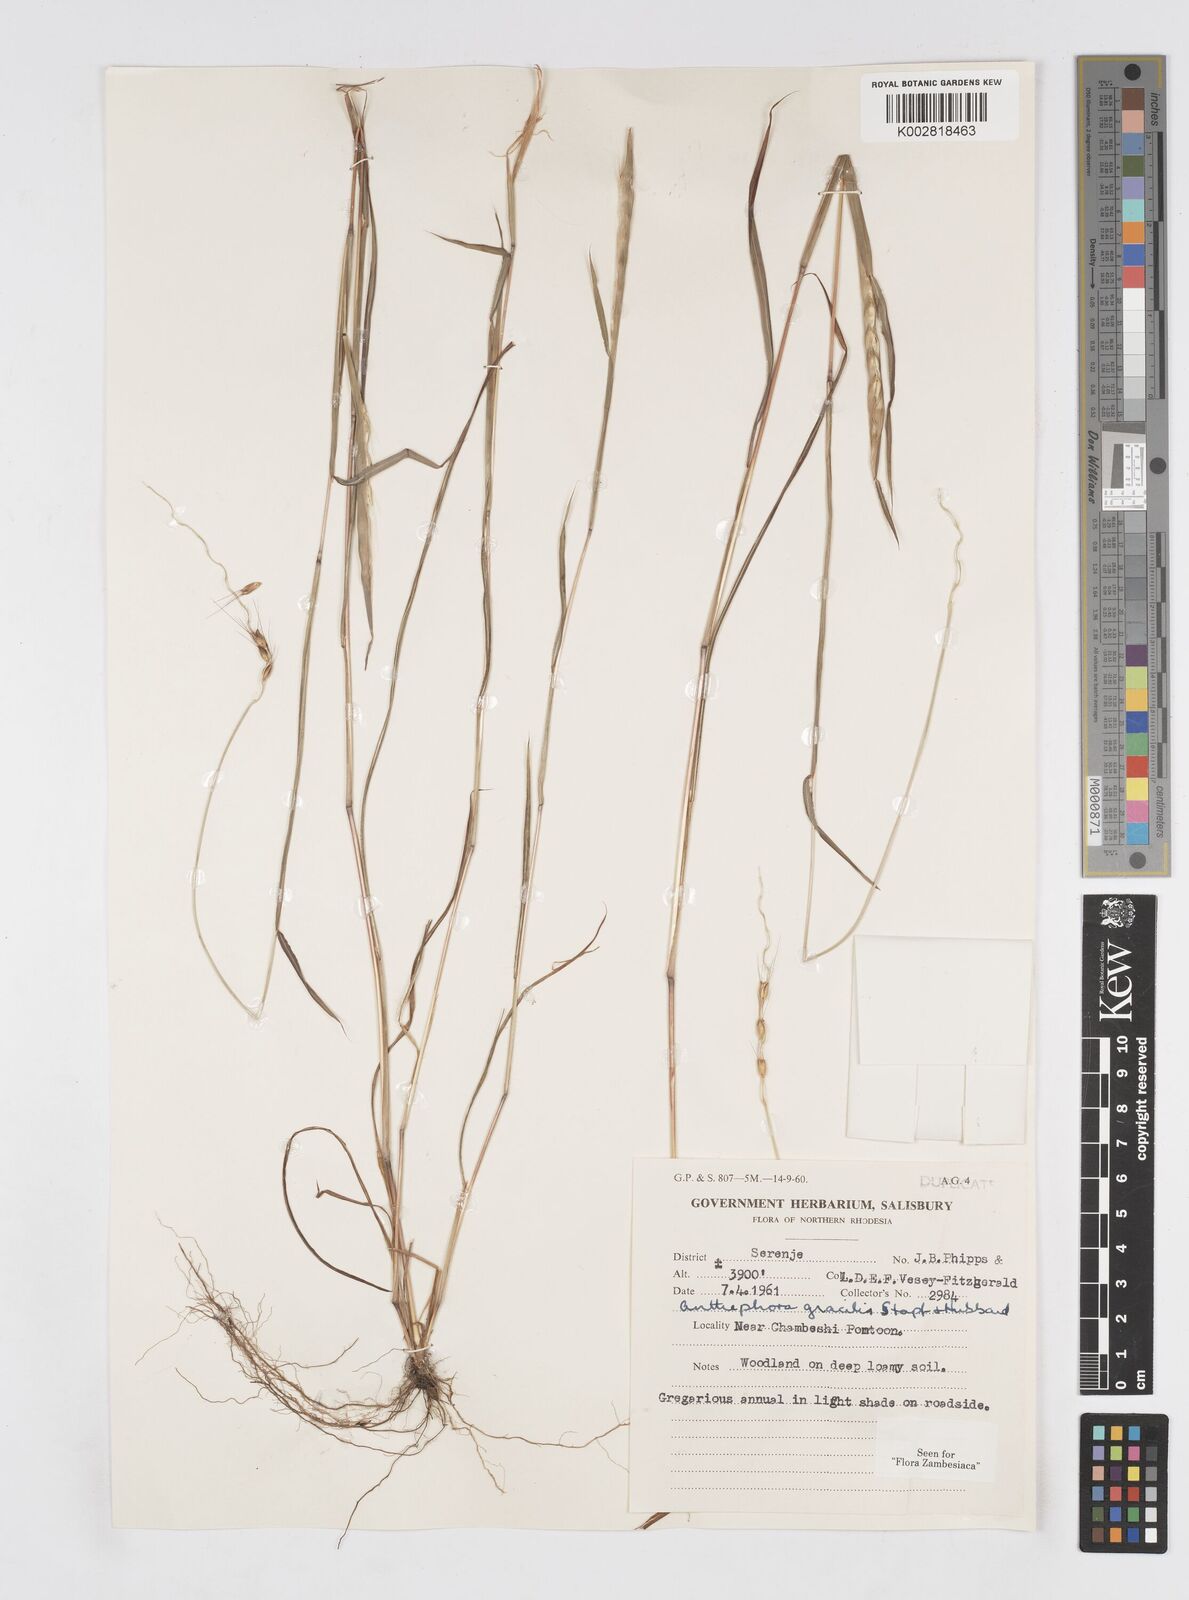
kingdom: Plantae
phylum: Tracheophyta
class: Liliopsida
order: Poales
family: Poaceae
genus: Anthephora
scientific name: Anthephora truncata
